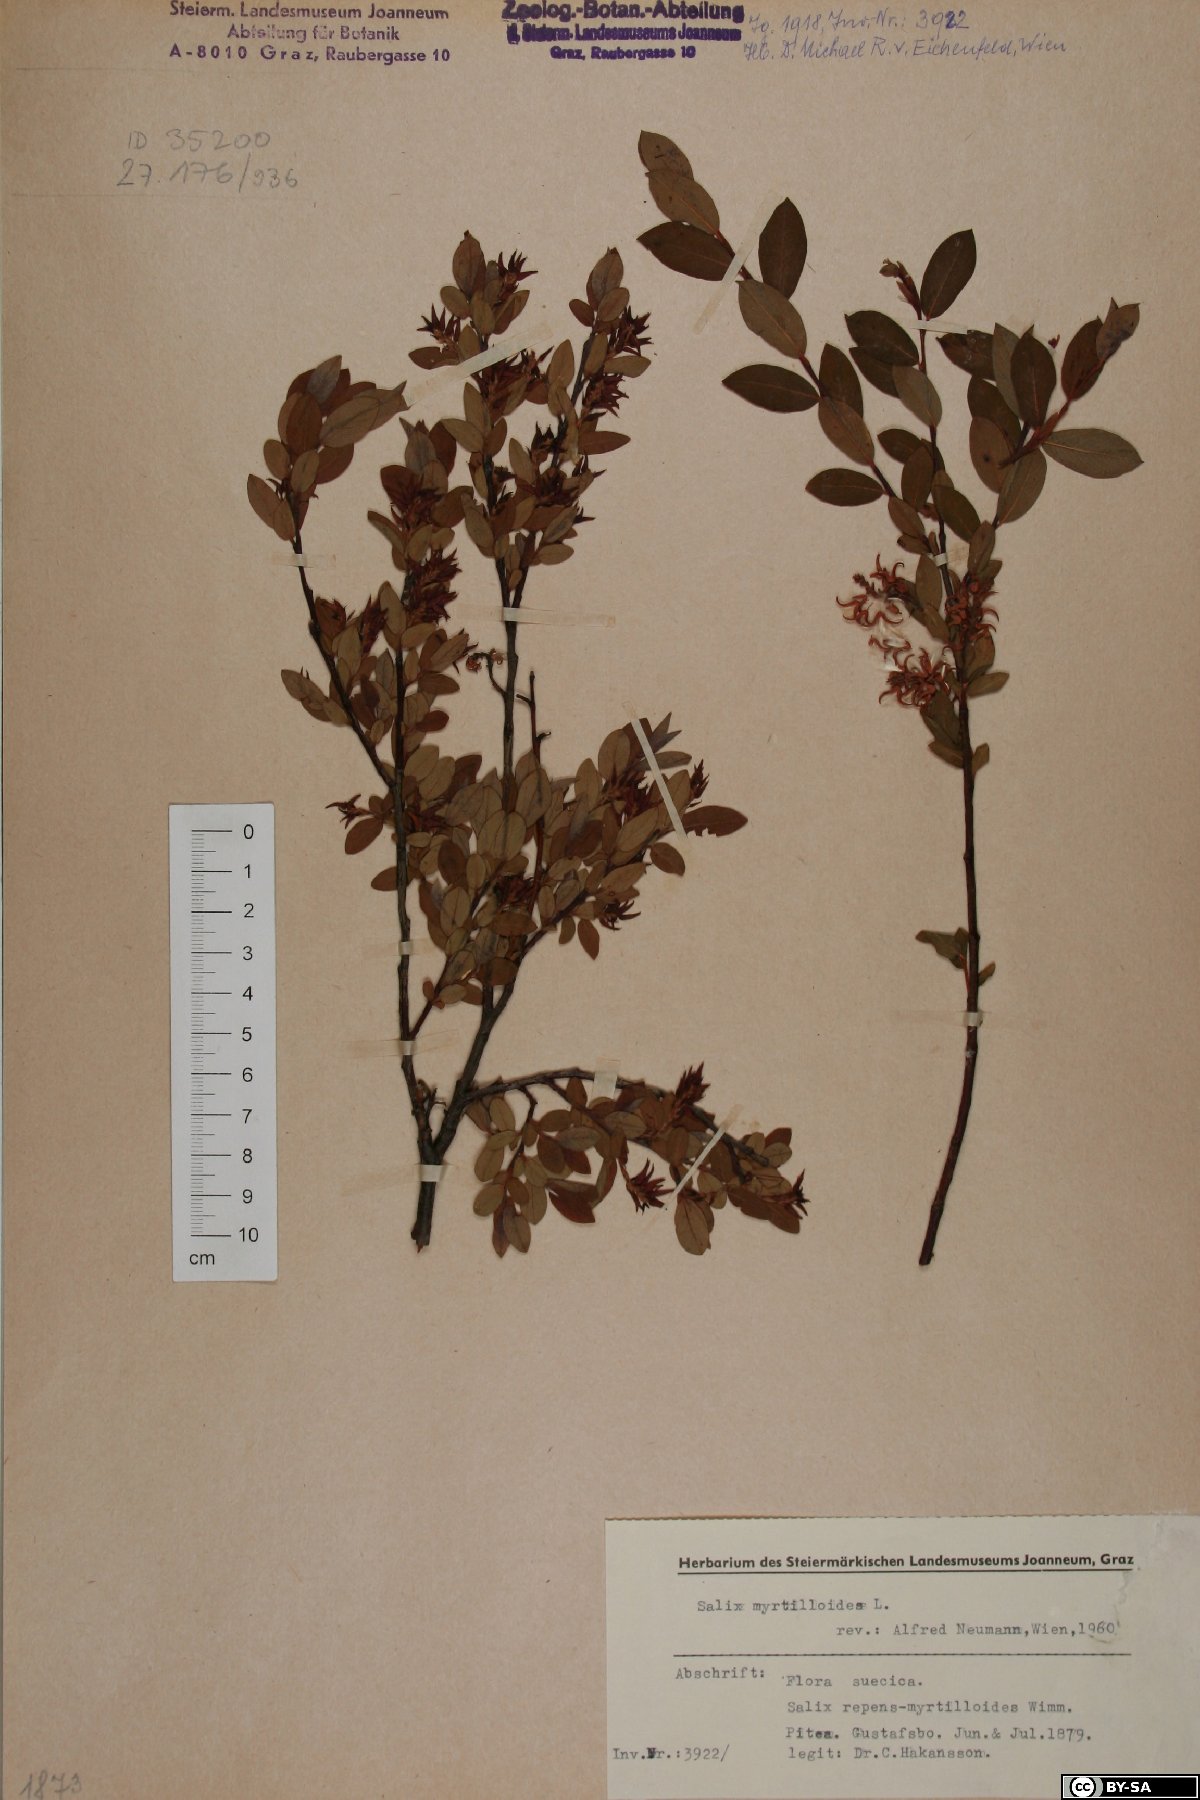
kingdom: Plantae
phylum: Tracheophyta
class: Magnoliopsida
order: Malpighiales
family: Salicaceae
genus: Salix
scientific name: Salix myrtilloides
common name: Myrtle-leaved willow
